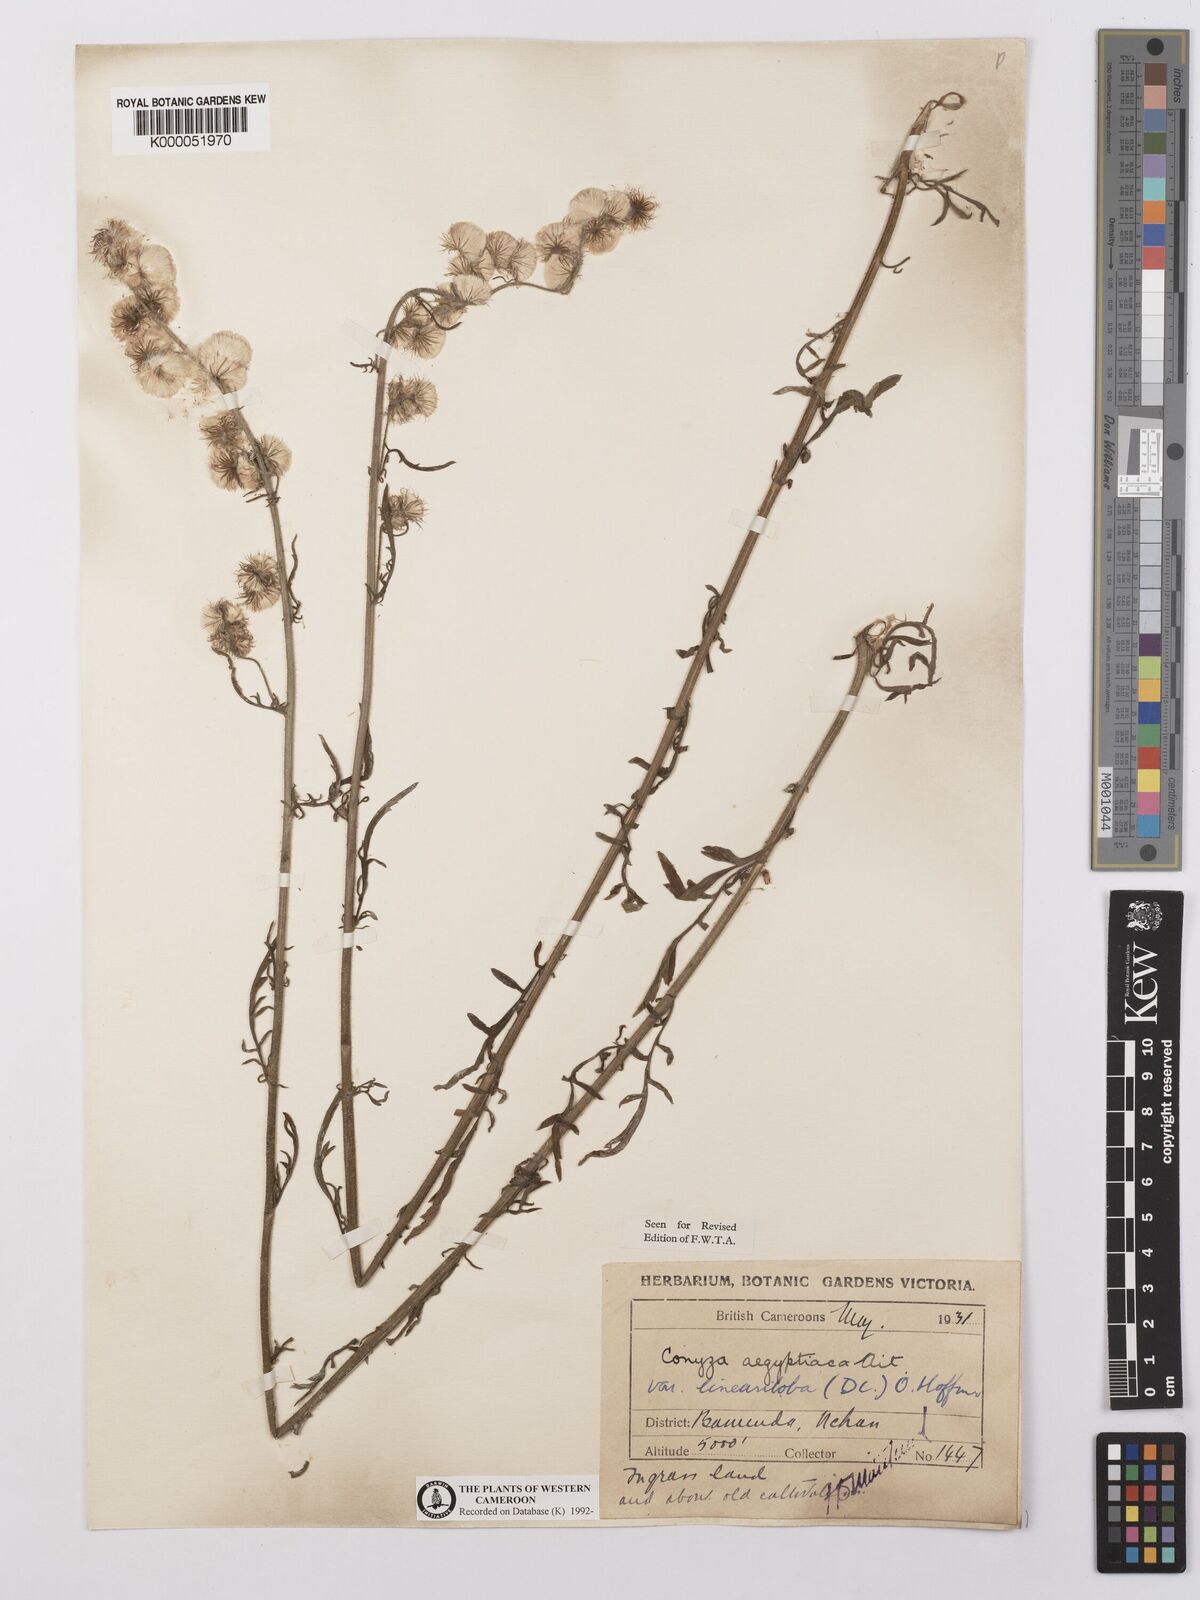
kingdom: Plantae
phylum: Tracheophyta
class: Magnoliopsida
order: Asterales
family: Asteraceae
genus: Nidorella
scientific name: Nidorella aegyptiaca
